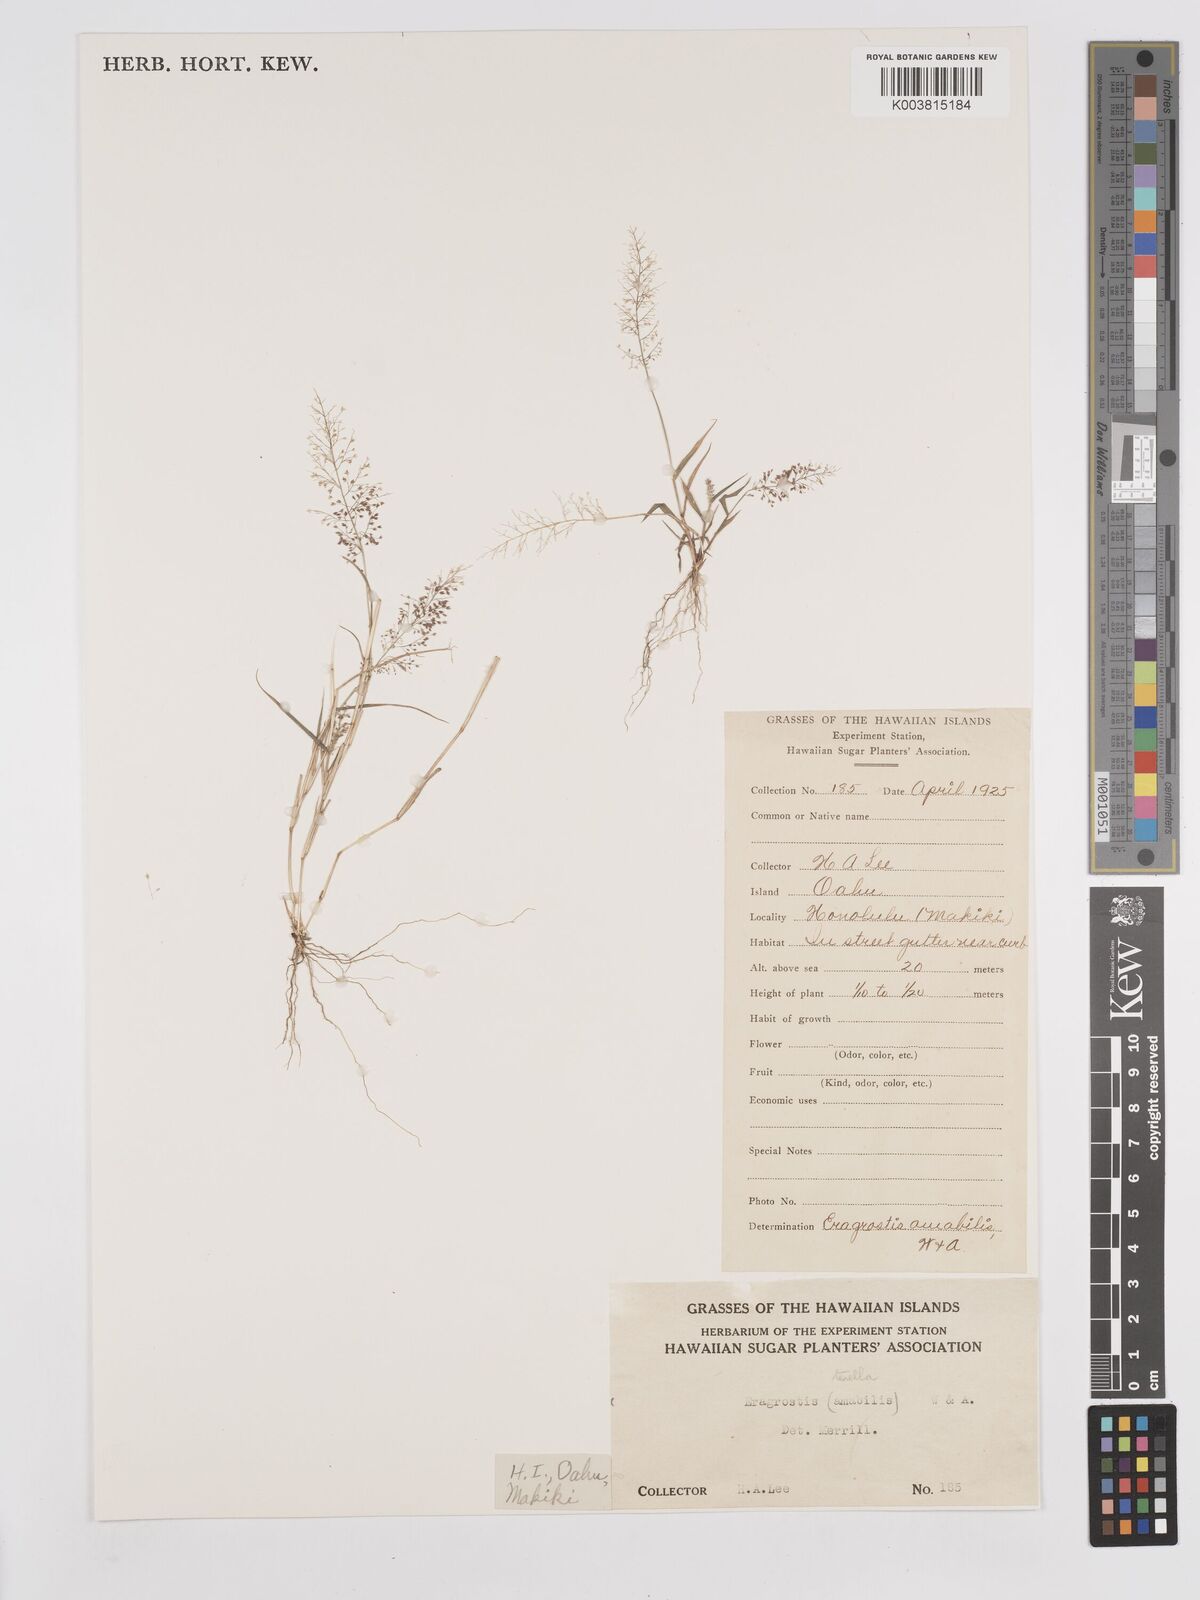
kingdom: Plantae
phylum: Tracheophyta
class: Liliopsida
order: Poales
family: Poaceae
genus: Eragrostis
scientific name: Eragrostis tenella
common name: Japanese lovegrass
